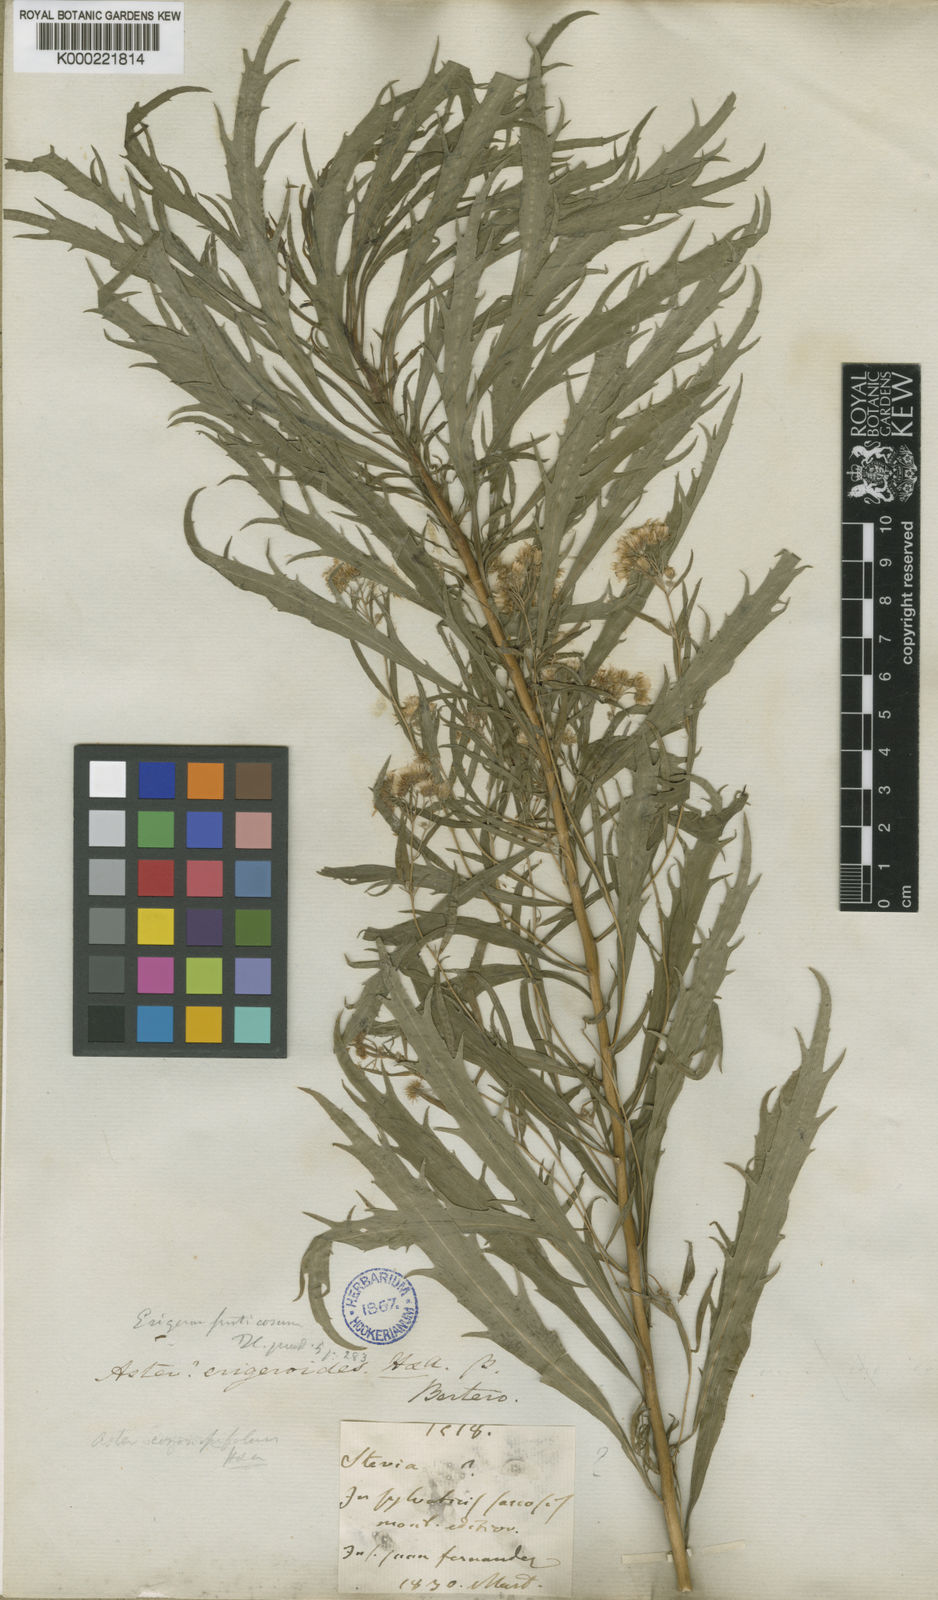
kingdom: Plantae
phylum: Tracheophyta
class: Magnoliopsida
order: Asterales
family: Asteraceae
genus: Erigeron
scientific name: Erigeron ingae
